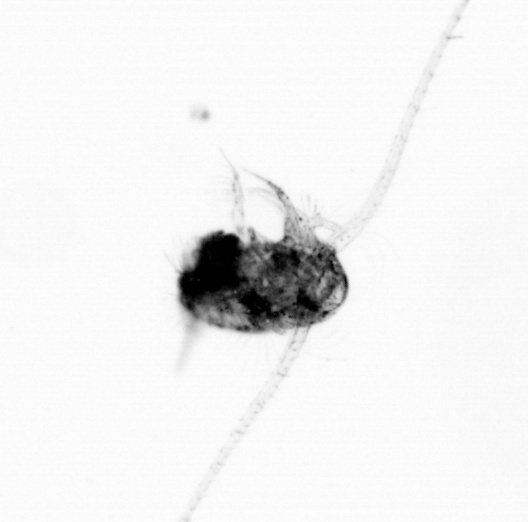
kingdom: Animalia
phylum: Arthropoda
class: Copepoda
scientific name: Copepoda
